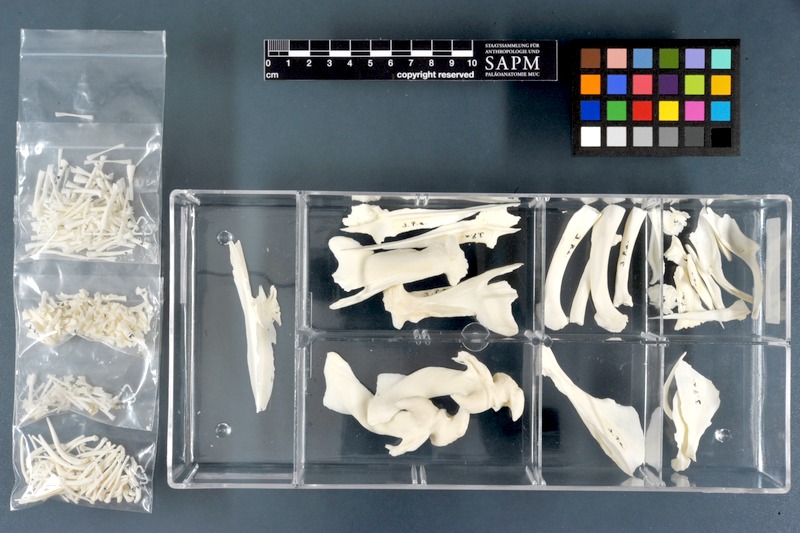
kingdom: Animalia
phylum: Chordata
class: Dipneusti
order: Ceratodontiformes
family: Protopteridae
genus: Protopterus
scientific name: Protopterus aethiopicus
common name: Marbled lungfish
